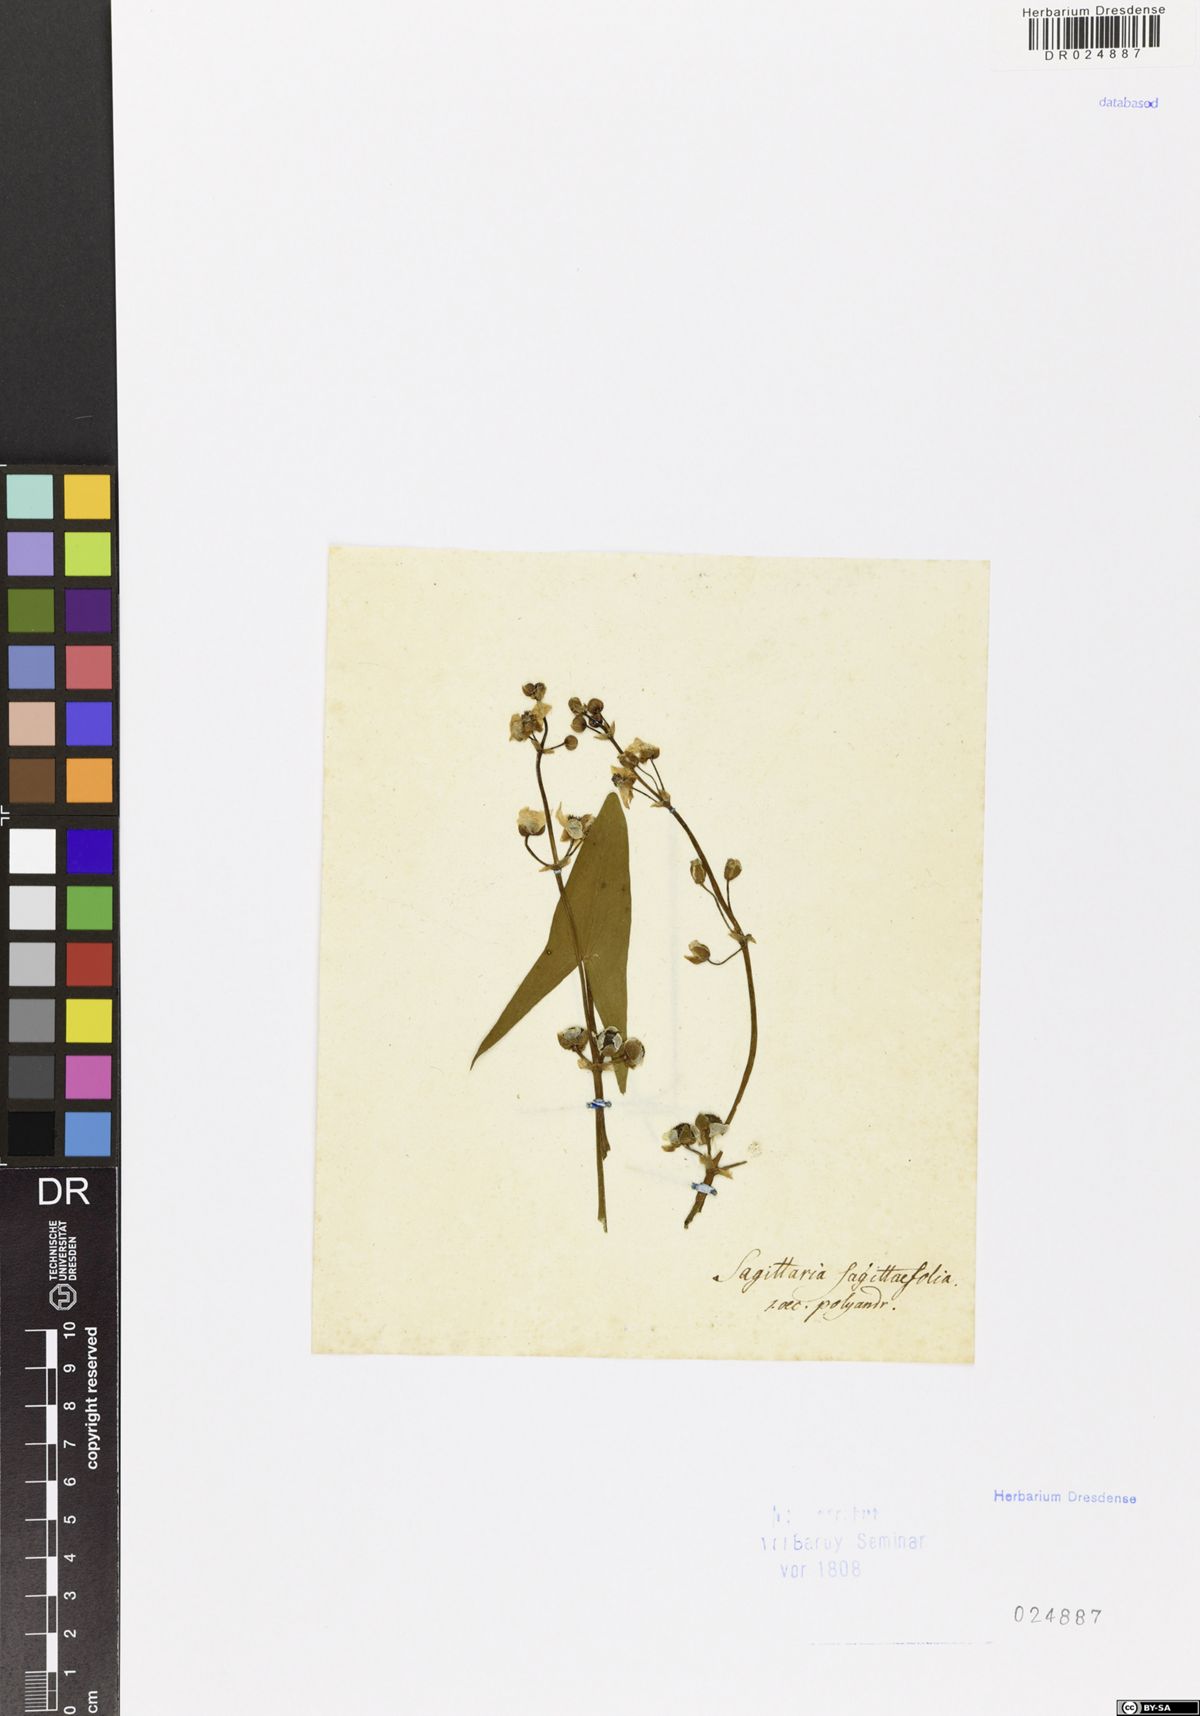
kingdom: Plantae
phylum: Tracheophyta
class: Liliopsida
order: Alismatales
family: Alismataceae
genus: Sagittaria
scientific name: Sagittaria sagittifolia
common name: Arrowhead
